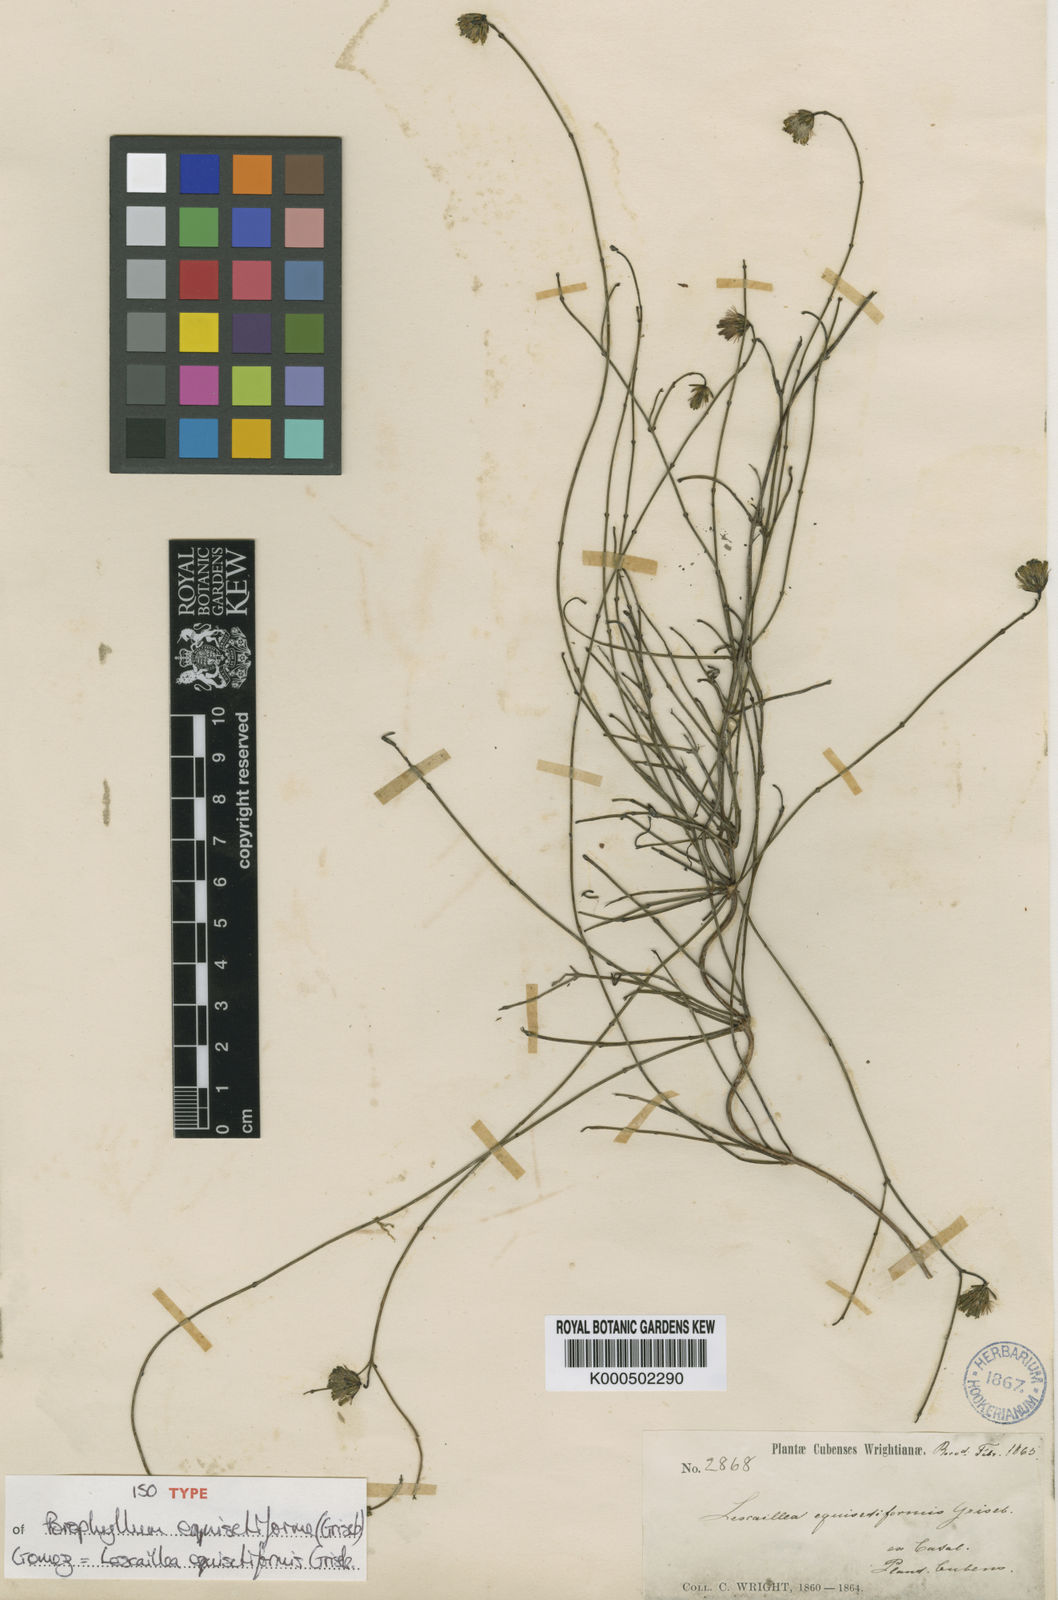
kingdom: Plantae
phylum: Tracheophyta
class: Magnoliopsida
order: Asterales
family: Asteraceae
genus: Lescaillea
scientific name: Lescaillea equisetiformis
